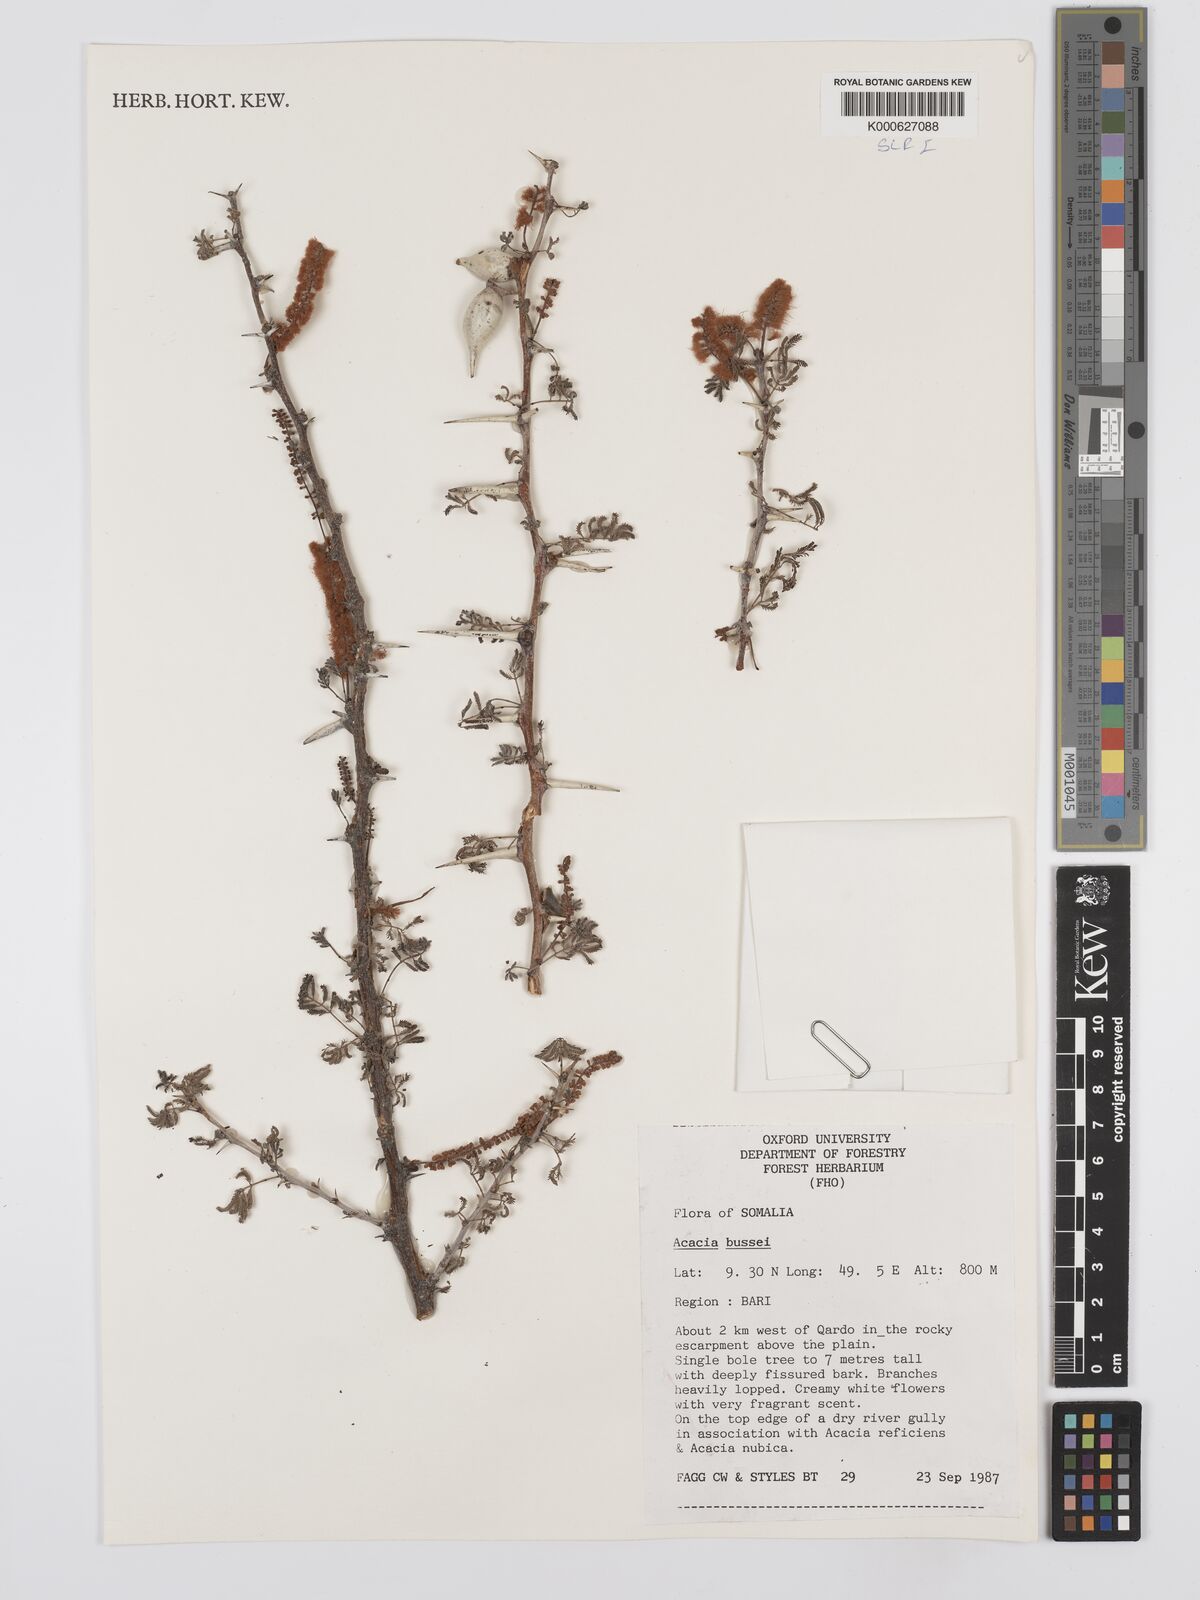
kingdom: Plantae
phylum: Tracheophyta
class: Magnoliopsida
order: Fabales
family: Fabaceae
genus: Vachellia
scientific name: Vachellia bussei
